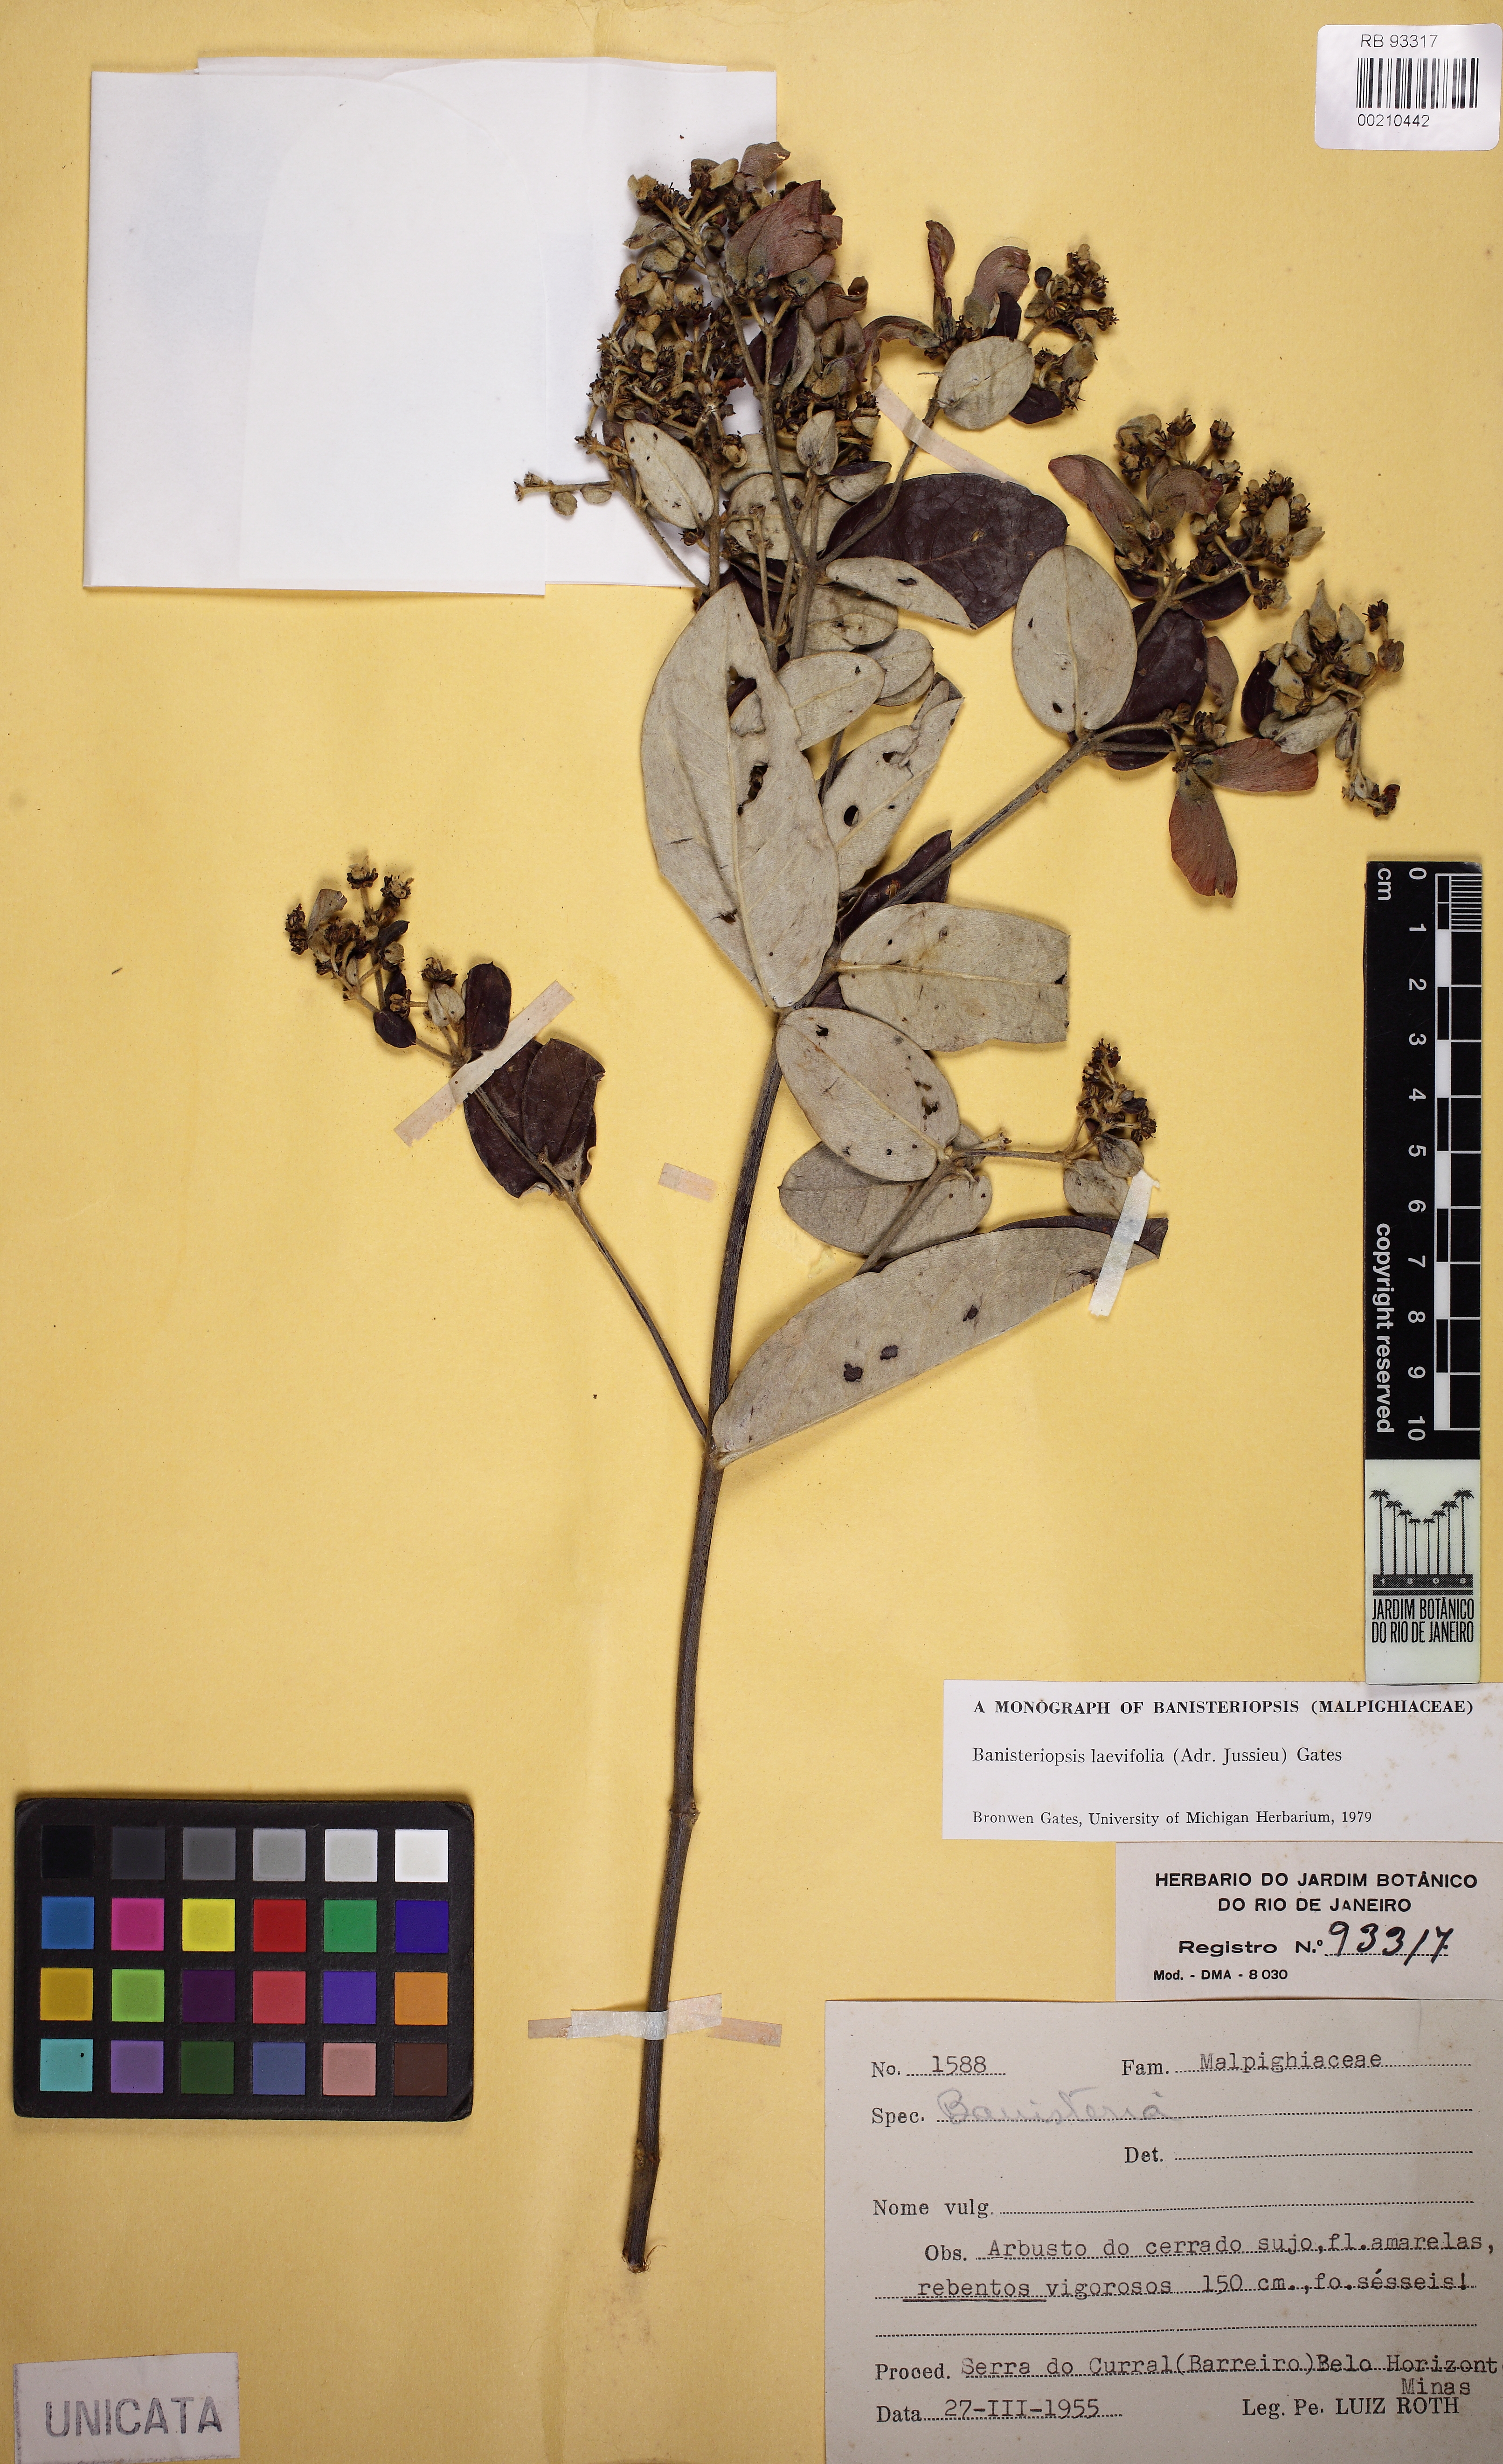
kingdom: Plantae
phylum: Tracheophyta
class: Magnoliopsida
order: Malpighiales
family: Malpighiaceae
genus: Banisteriopsis
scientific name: Banisteriopsis laevifolia
